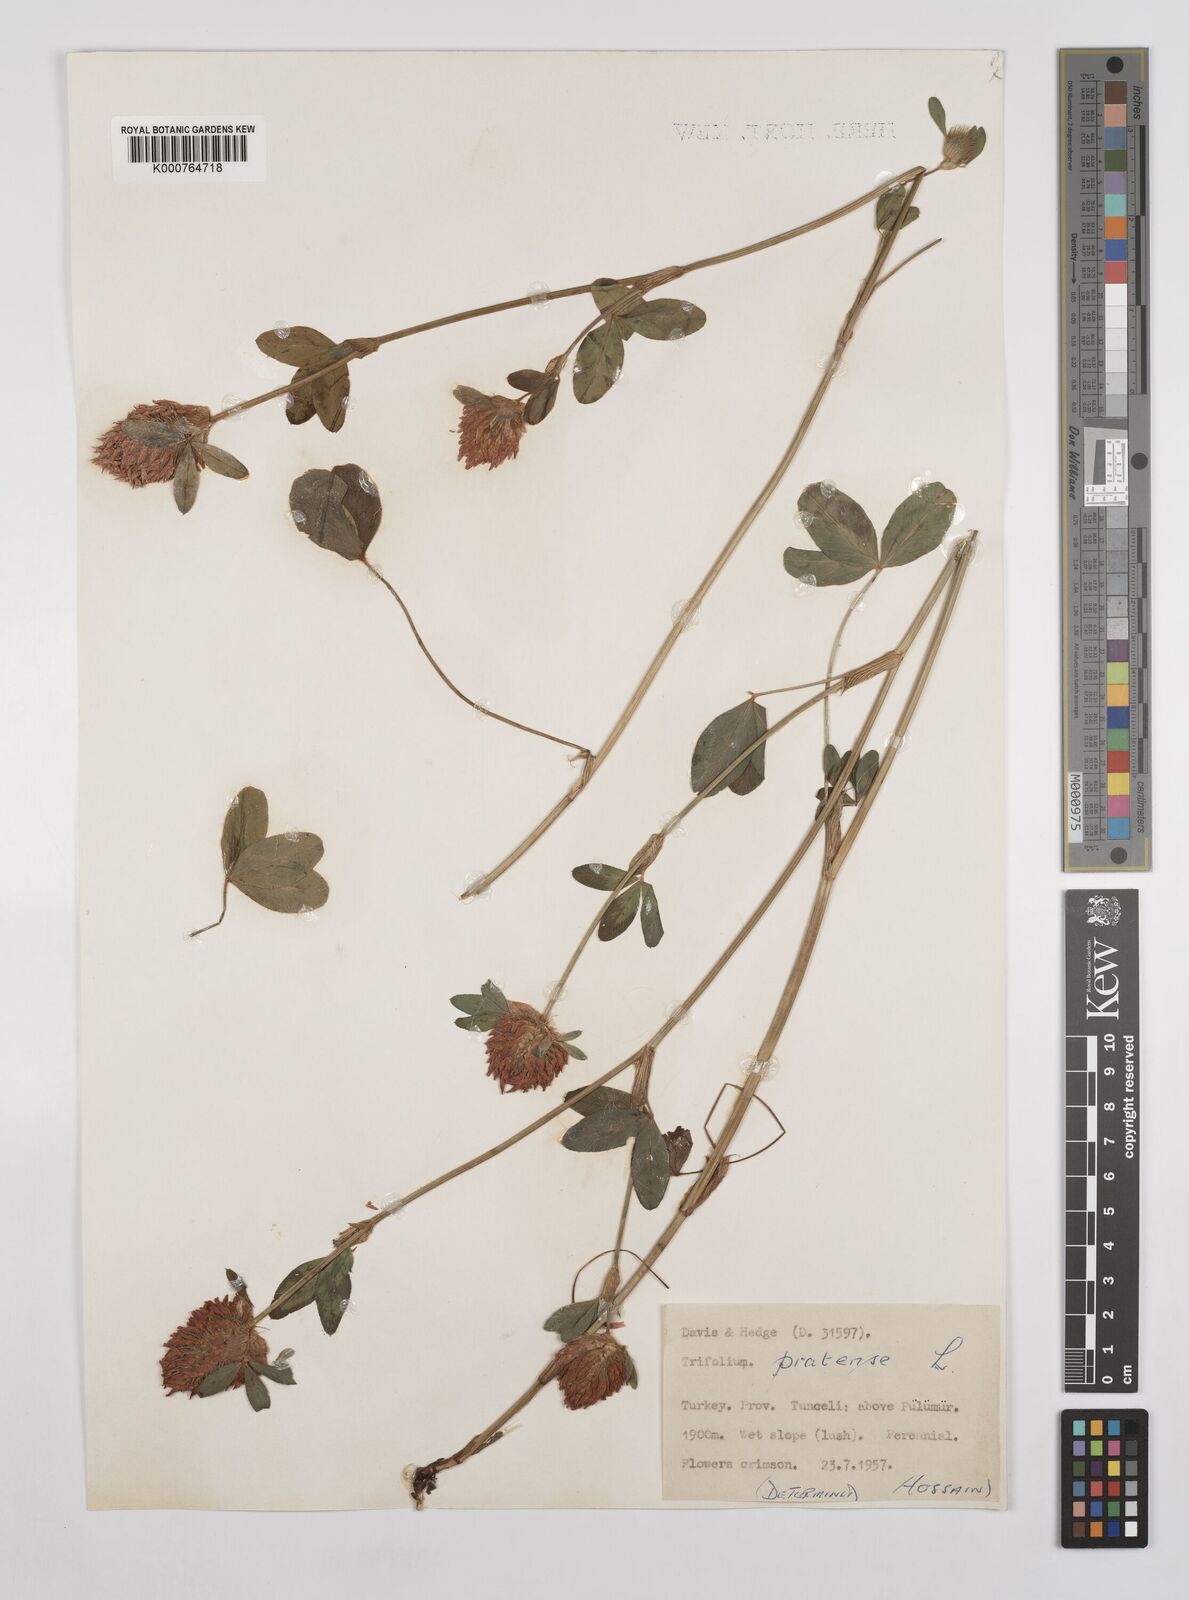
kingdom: Plantae
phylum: Tracheophyta
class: Magnoliopsida
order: Fabales
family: Fabaceae
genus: Trifolium
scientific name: Trifolium pratense
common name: Red clover
